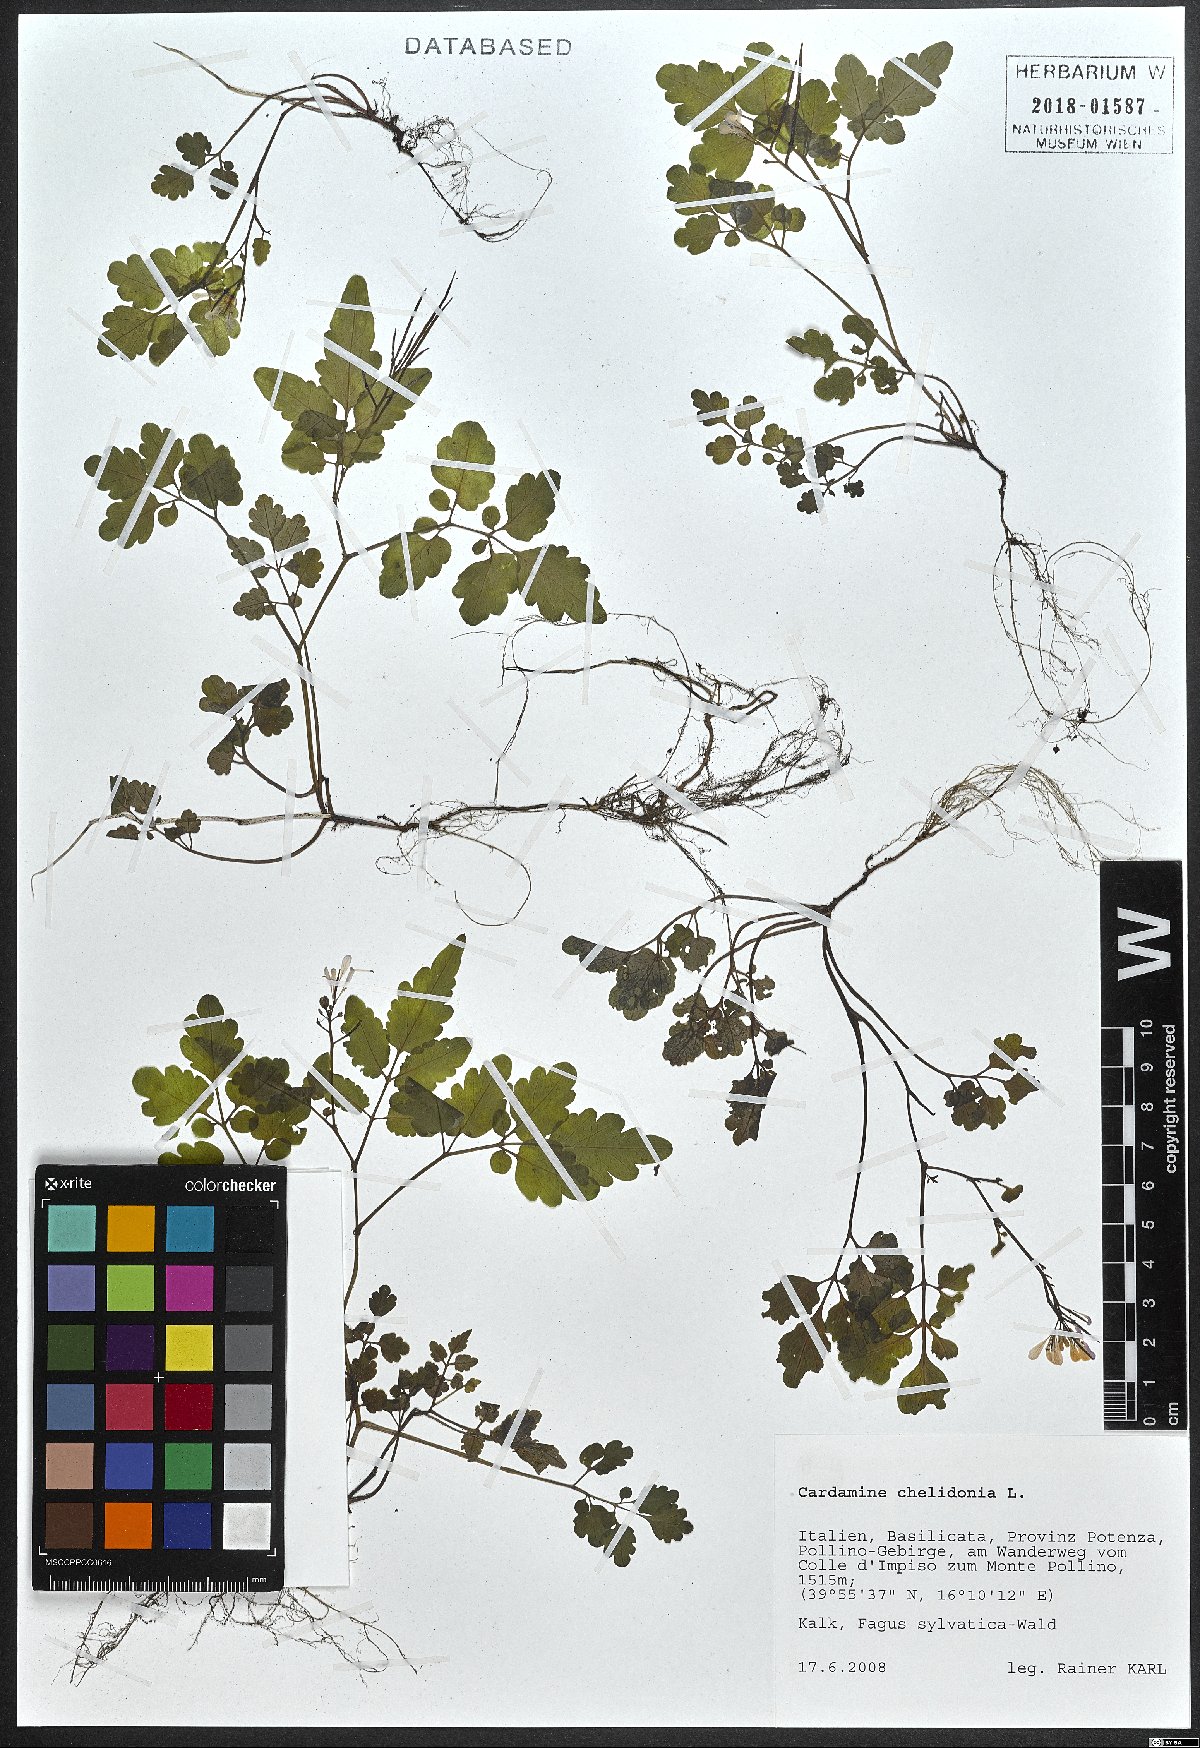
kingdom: Plantae
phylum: Tracheophyta
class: Magnoliopsida
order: Brassicales
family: Brassicaceae
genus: Cardamine
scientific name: Cardamine chelidonia
